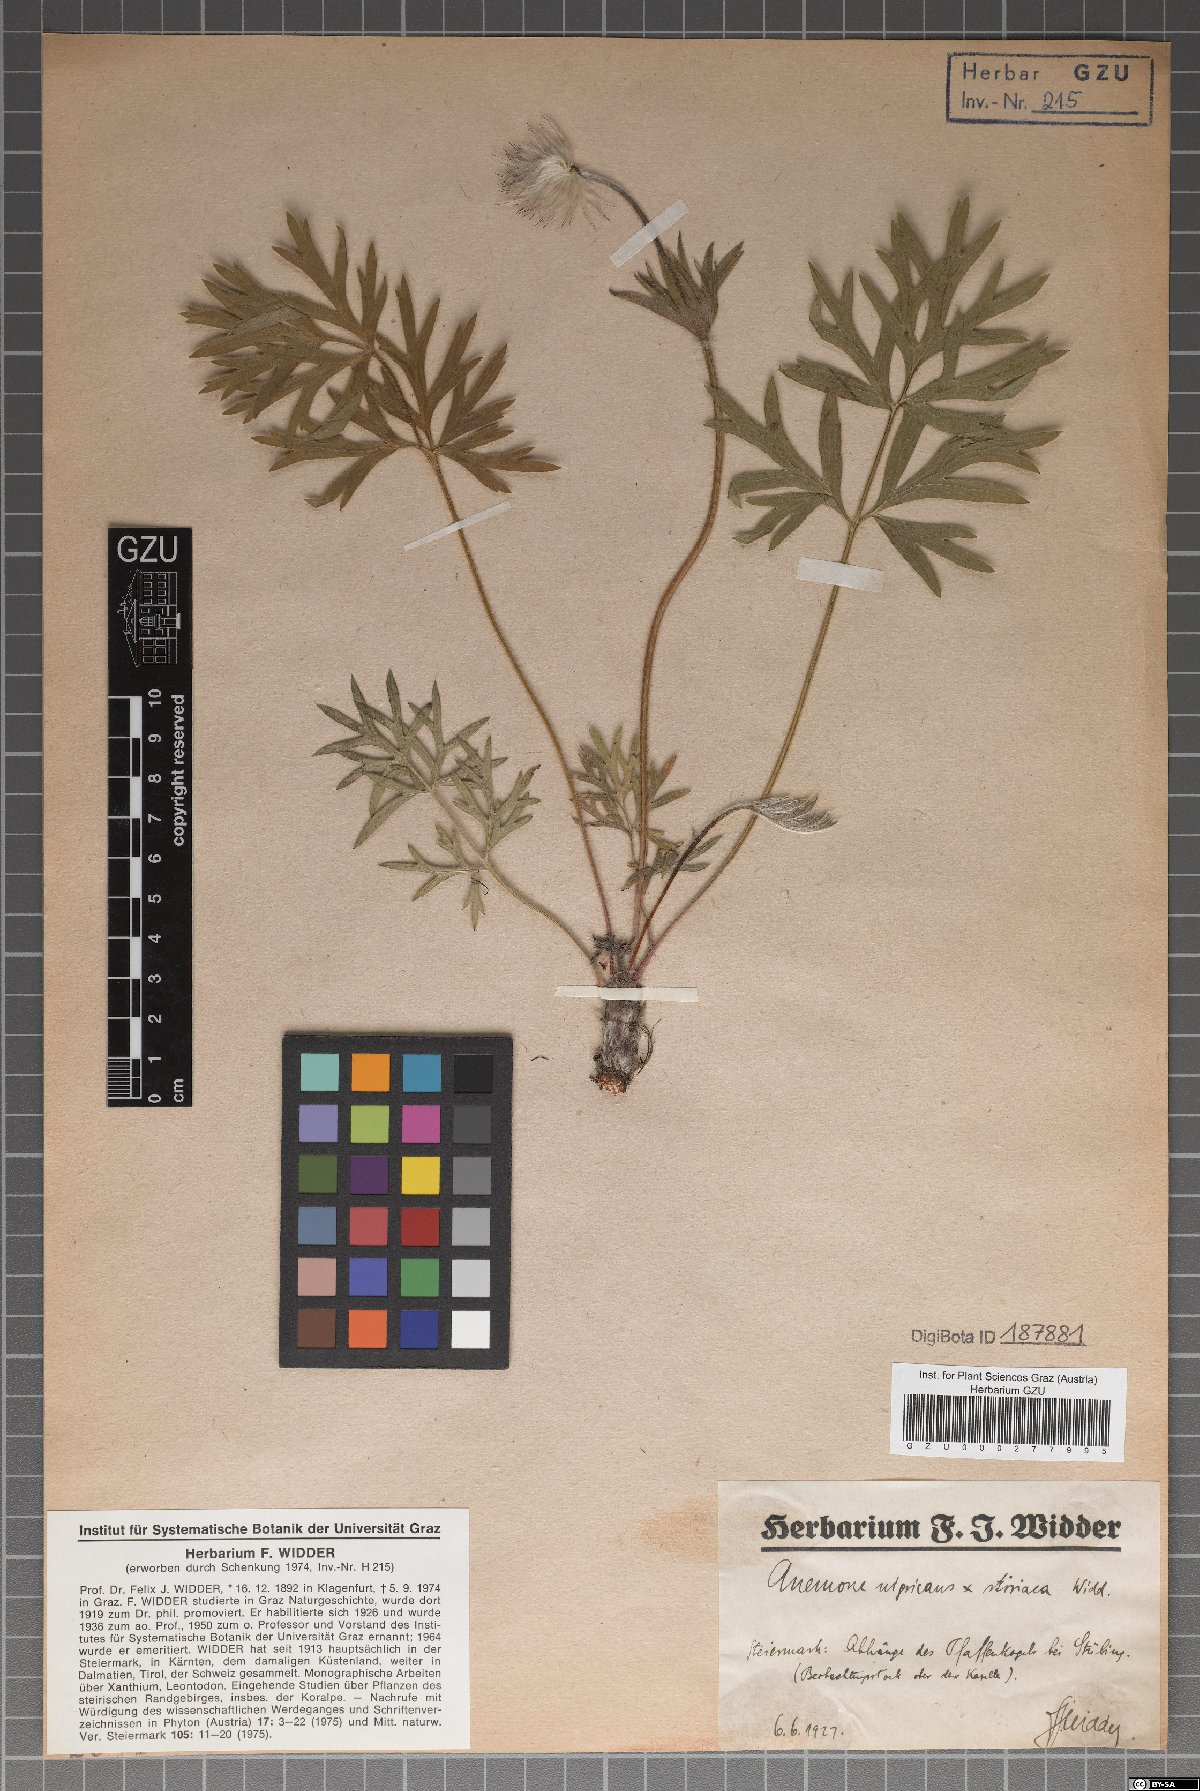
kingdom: Plantae
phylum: Tracheophyta
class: Magnoliopsida
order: Ranunculales
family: Ranunculaceae
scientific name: Ranunculaceae
